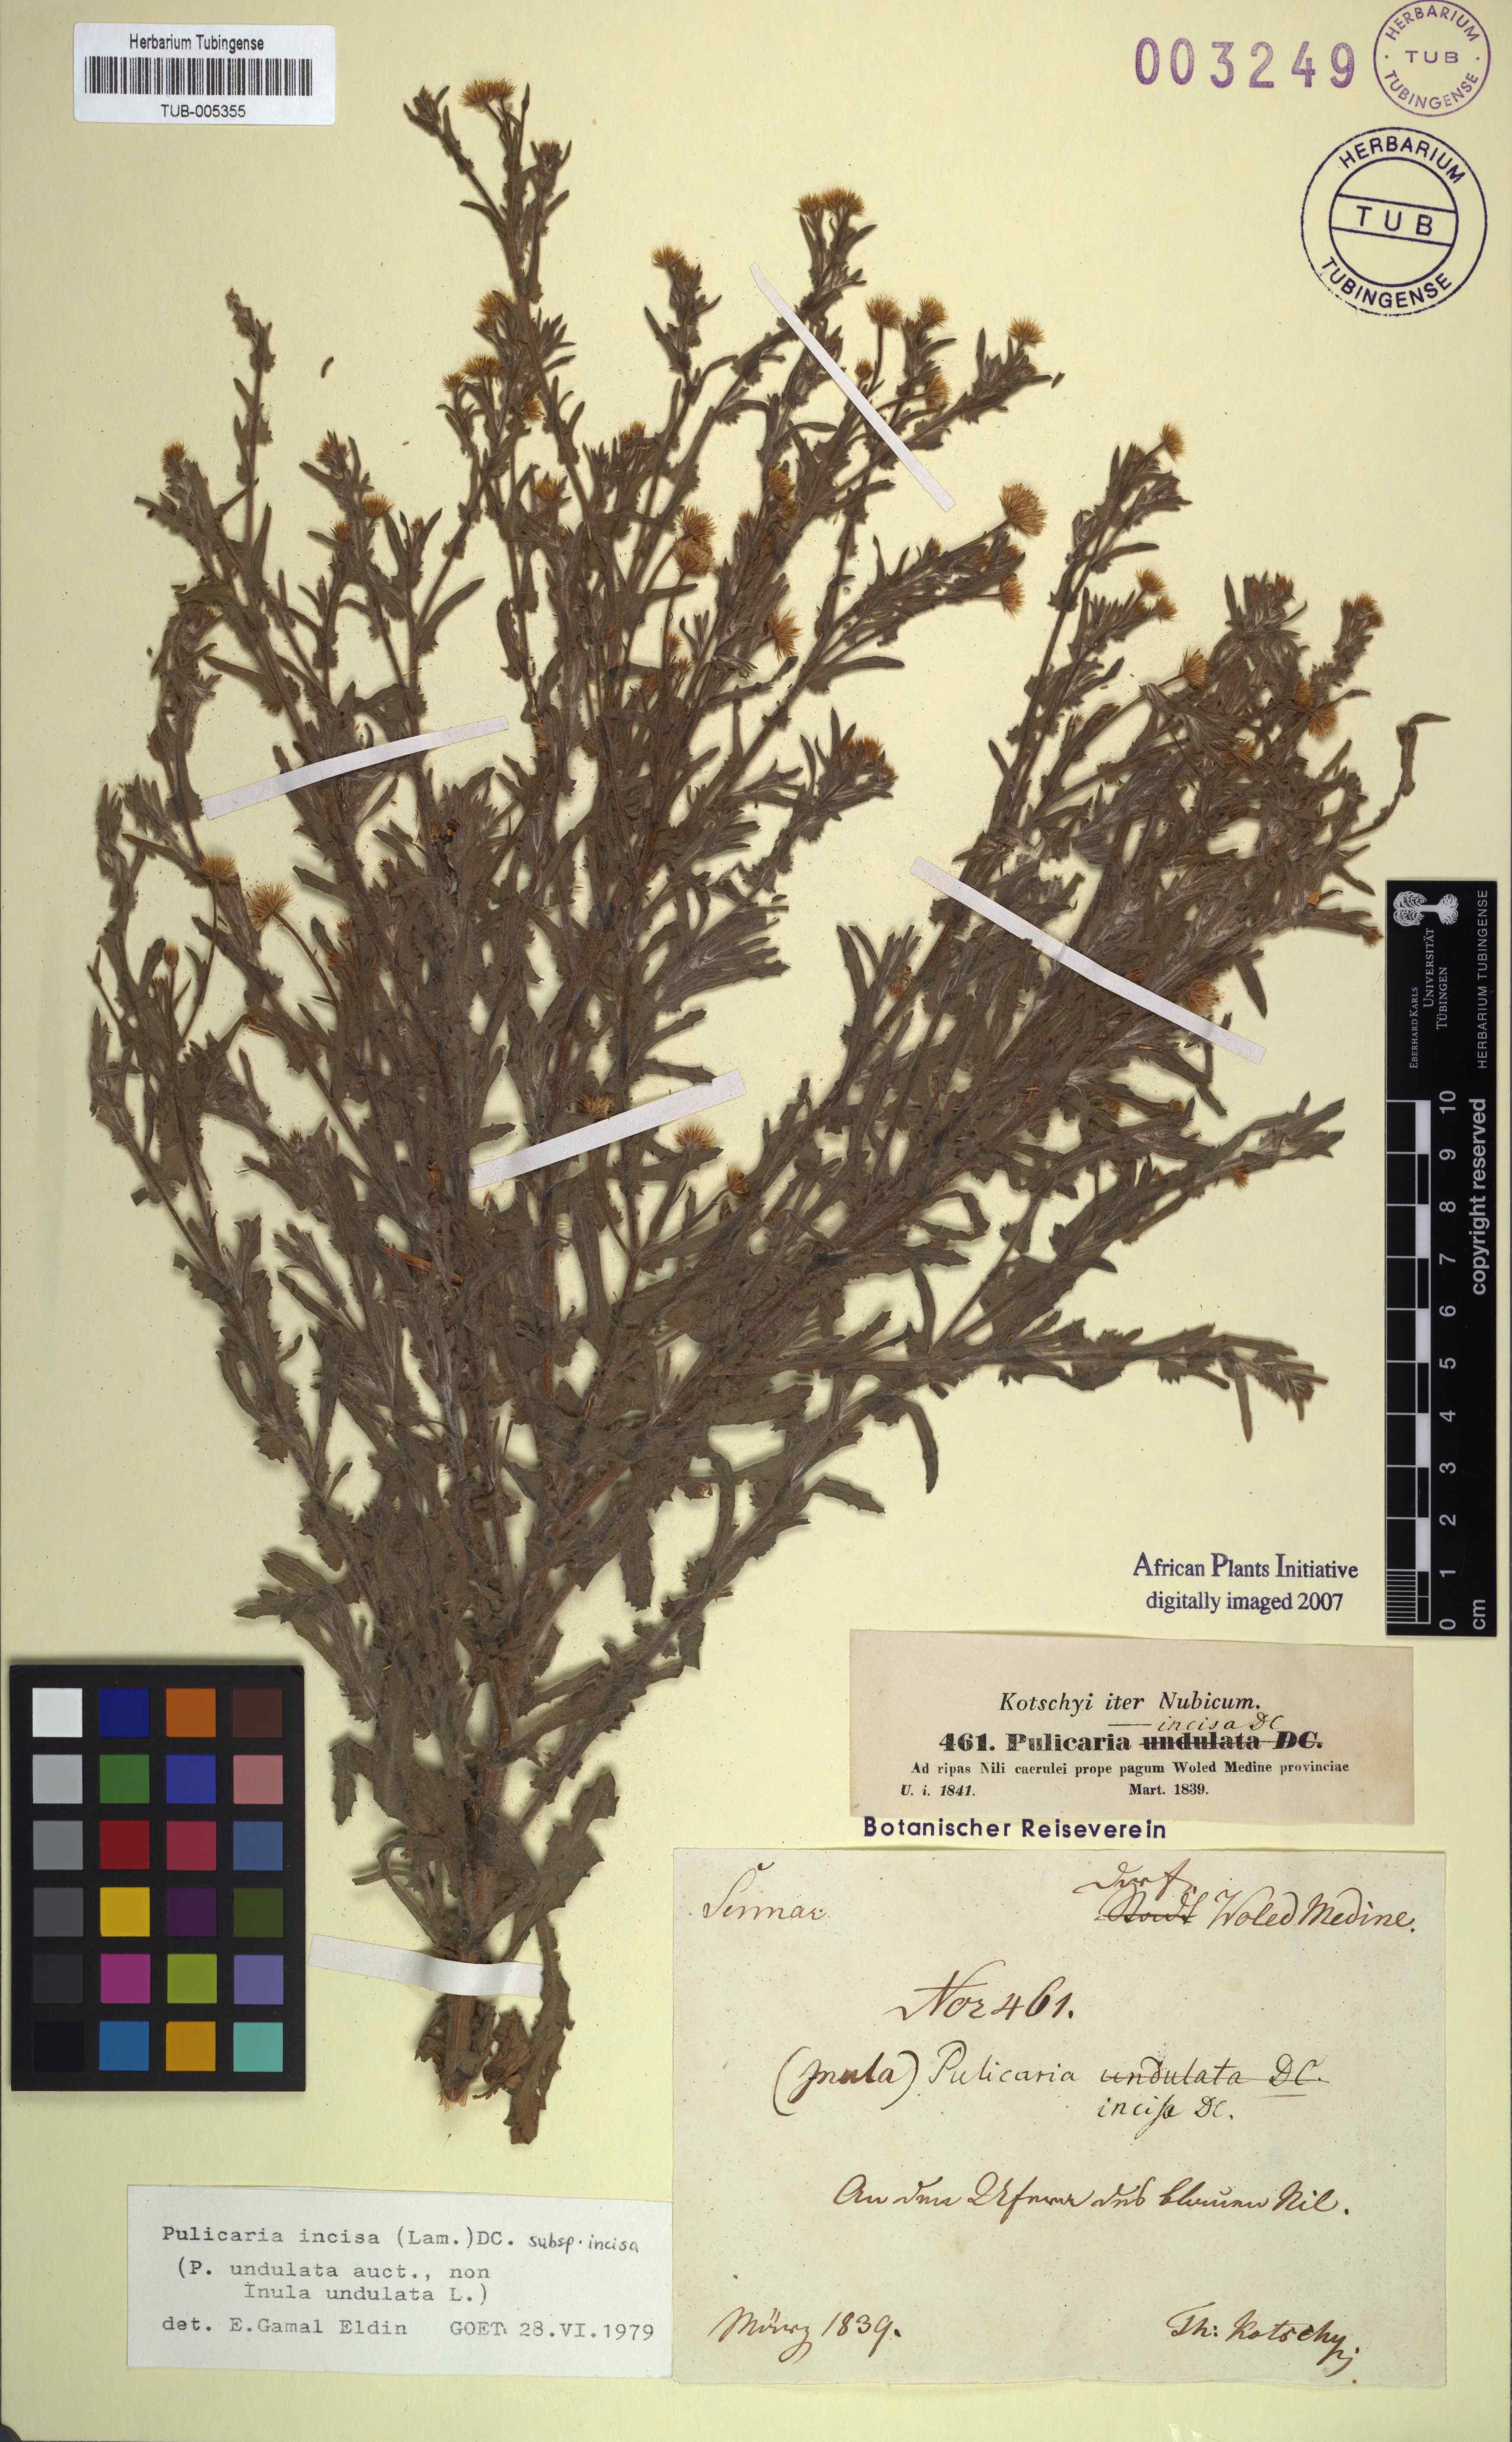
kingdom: Plantae
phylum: Tracheophyta
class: Magnoliopsida
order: Asterales
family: Asteraceae
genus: Pulicaria
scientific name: Pulicaria incisa
